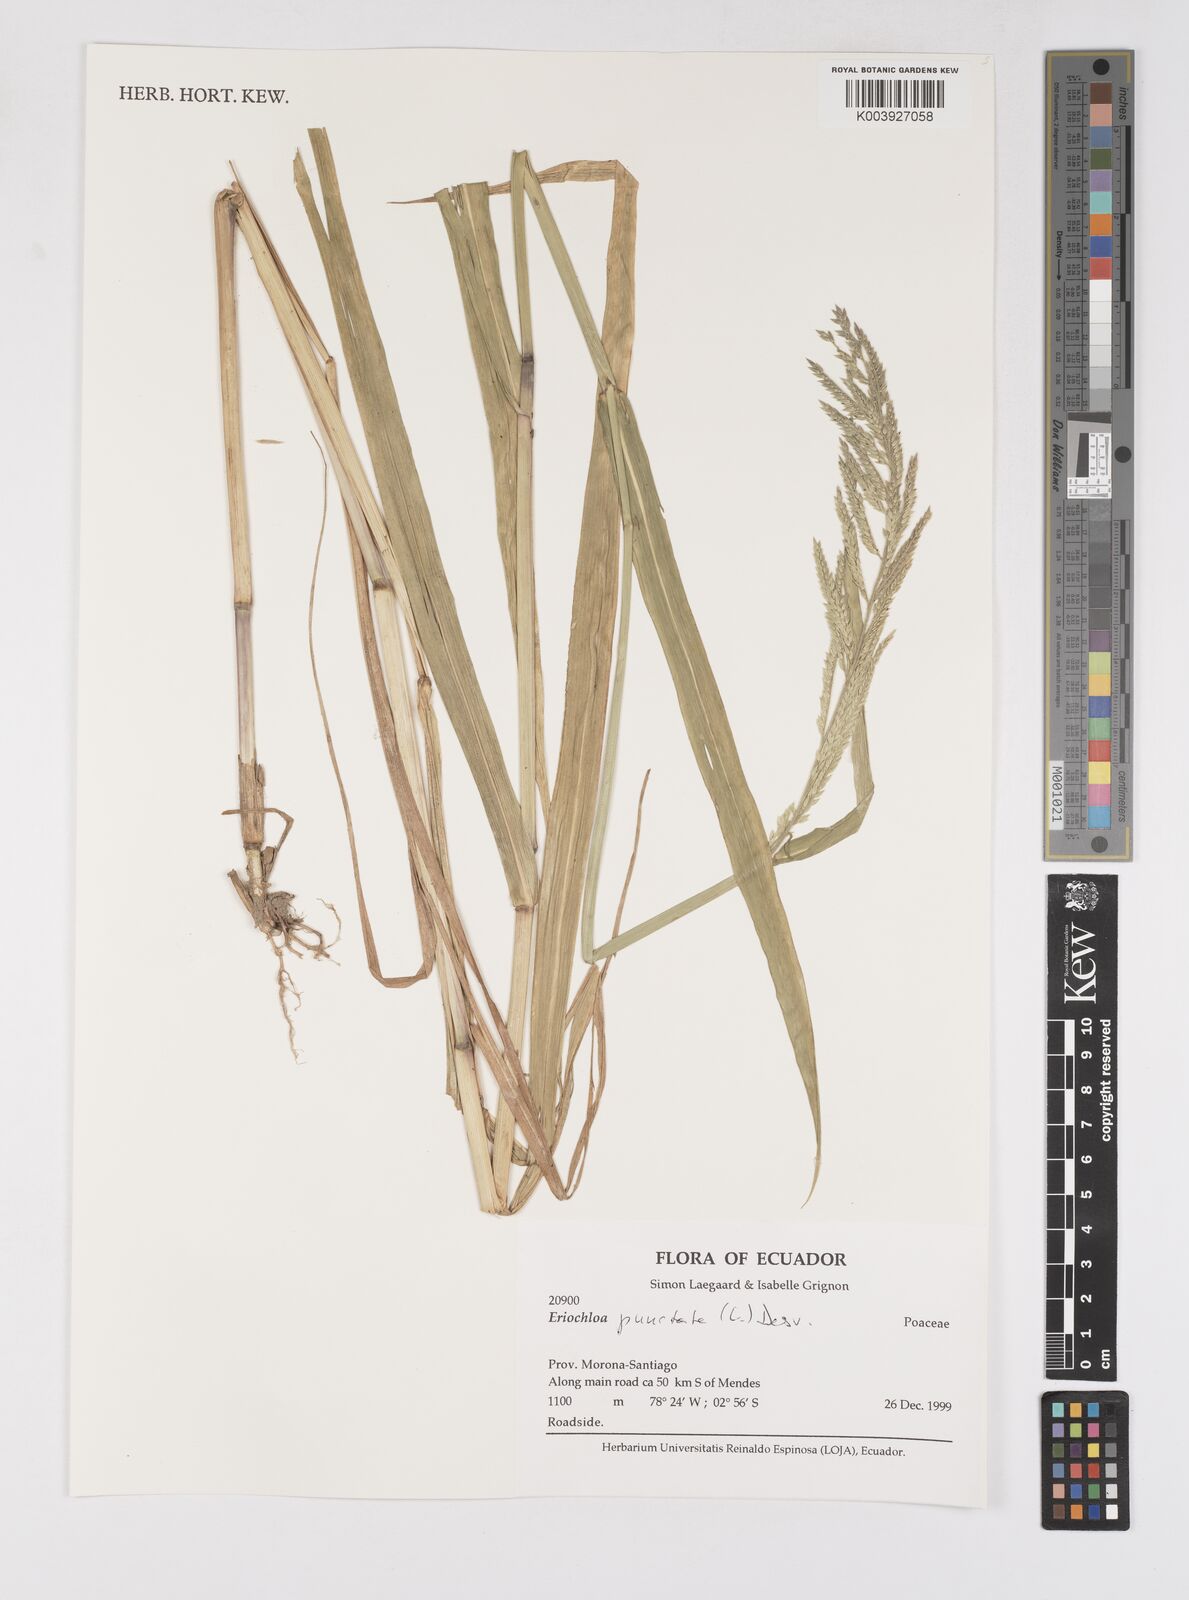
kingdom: Plantae
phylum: Tracheophyta
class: Liliopsida
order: Poales
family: Poaceae
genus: Eriochloa
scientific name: Eriochloa punctata
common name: Louisiana cupgrass
